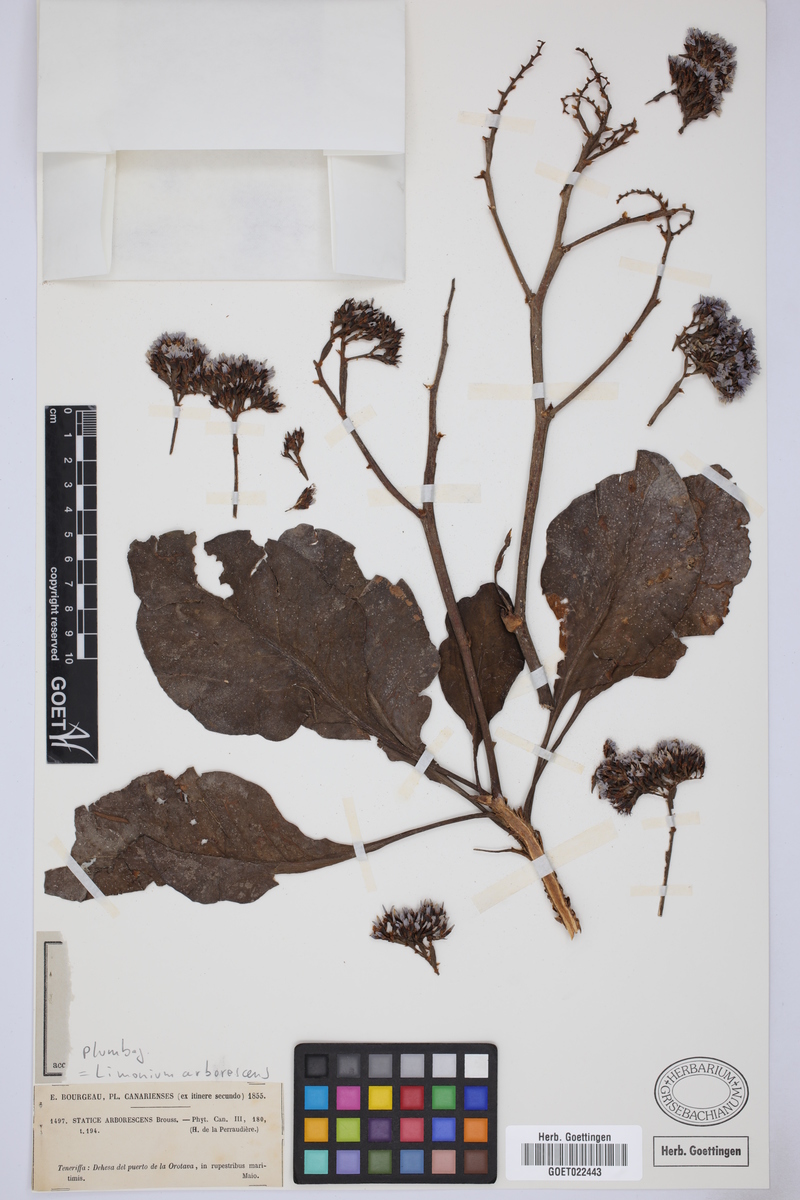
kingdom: Plantae
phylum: Tracheophyta
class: Magnoliopsida
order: Caryophyllales
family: Plumbaginaceae
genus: Limonium
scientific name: Limonium arboreum
